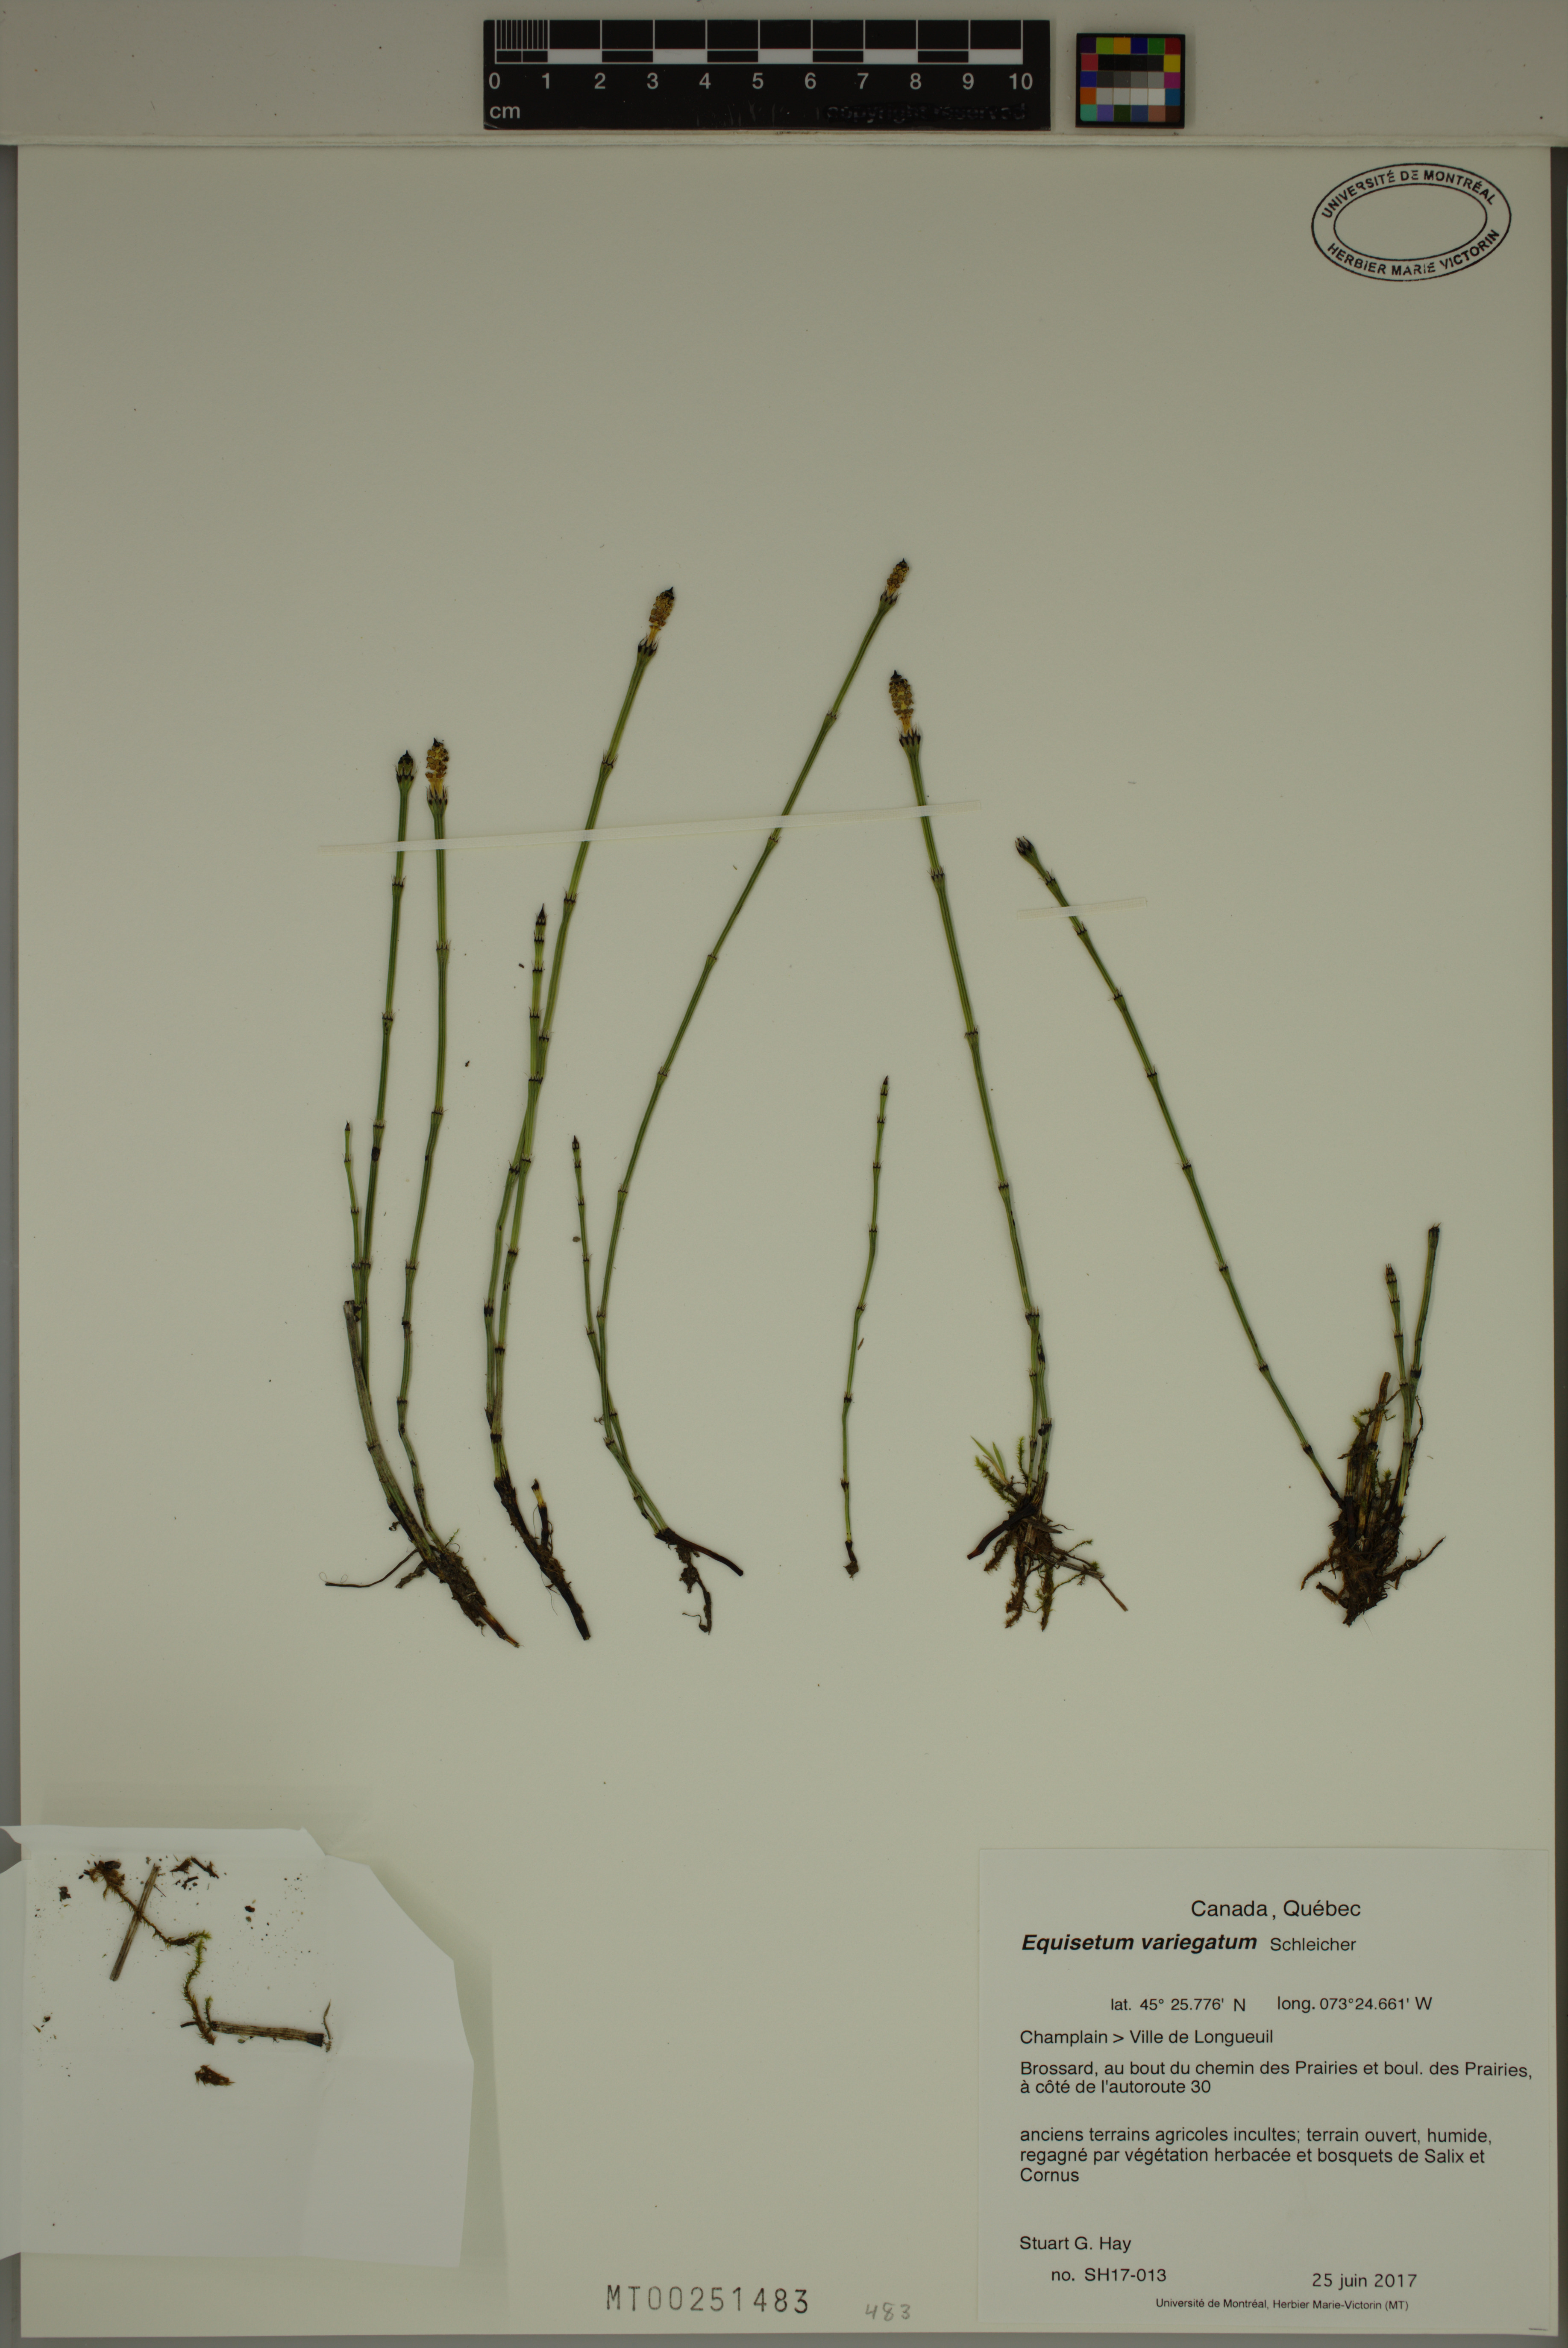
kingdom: Plantae
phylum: Tracheophyta
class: Polypodiopsida
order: Equisetales
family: Equisetaceae
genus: Equisetum
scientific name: Equisetum variegatum
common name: Variegated horsetail
